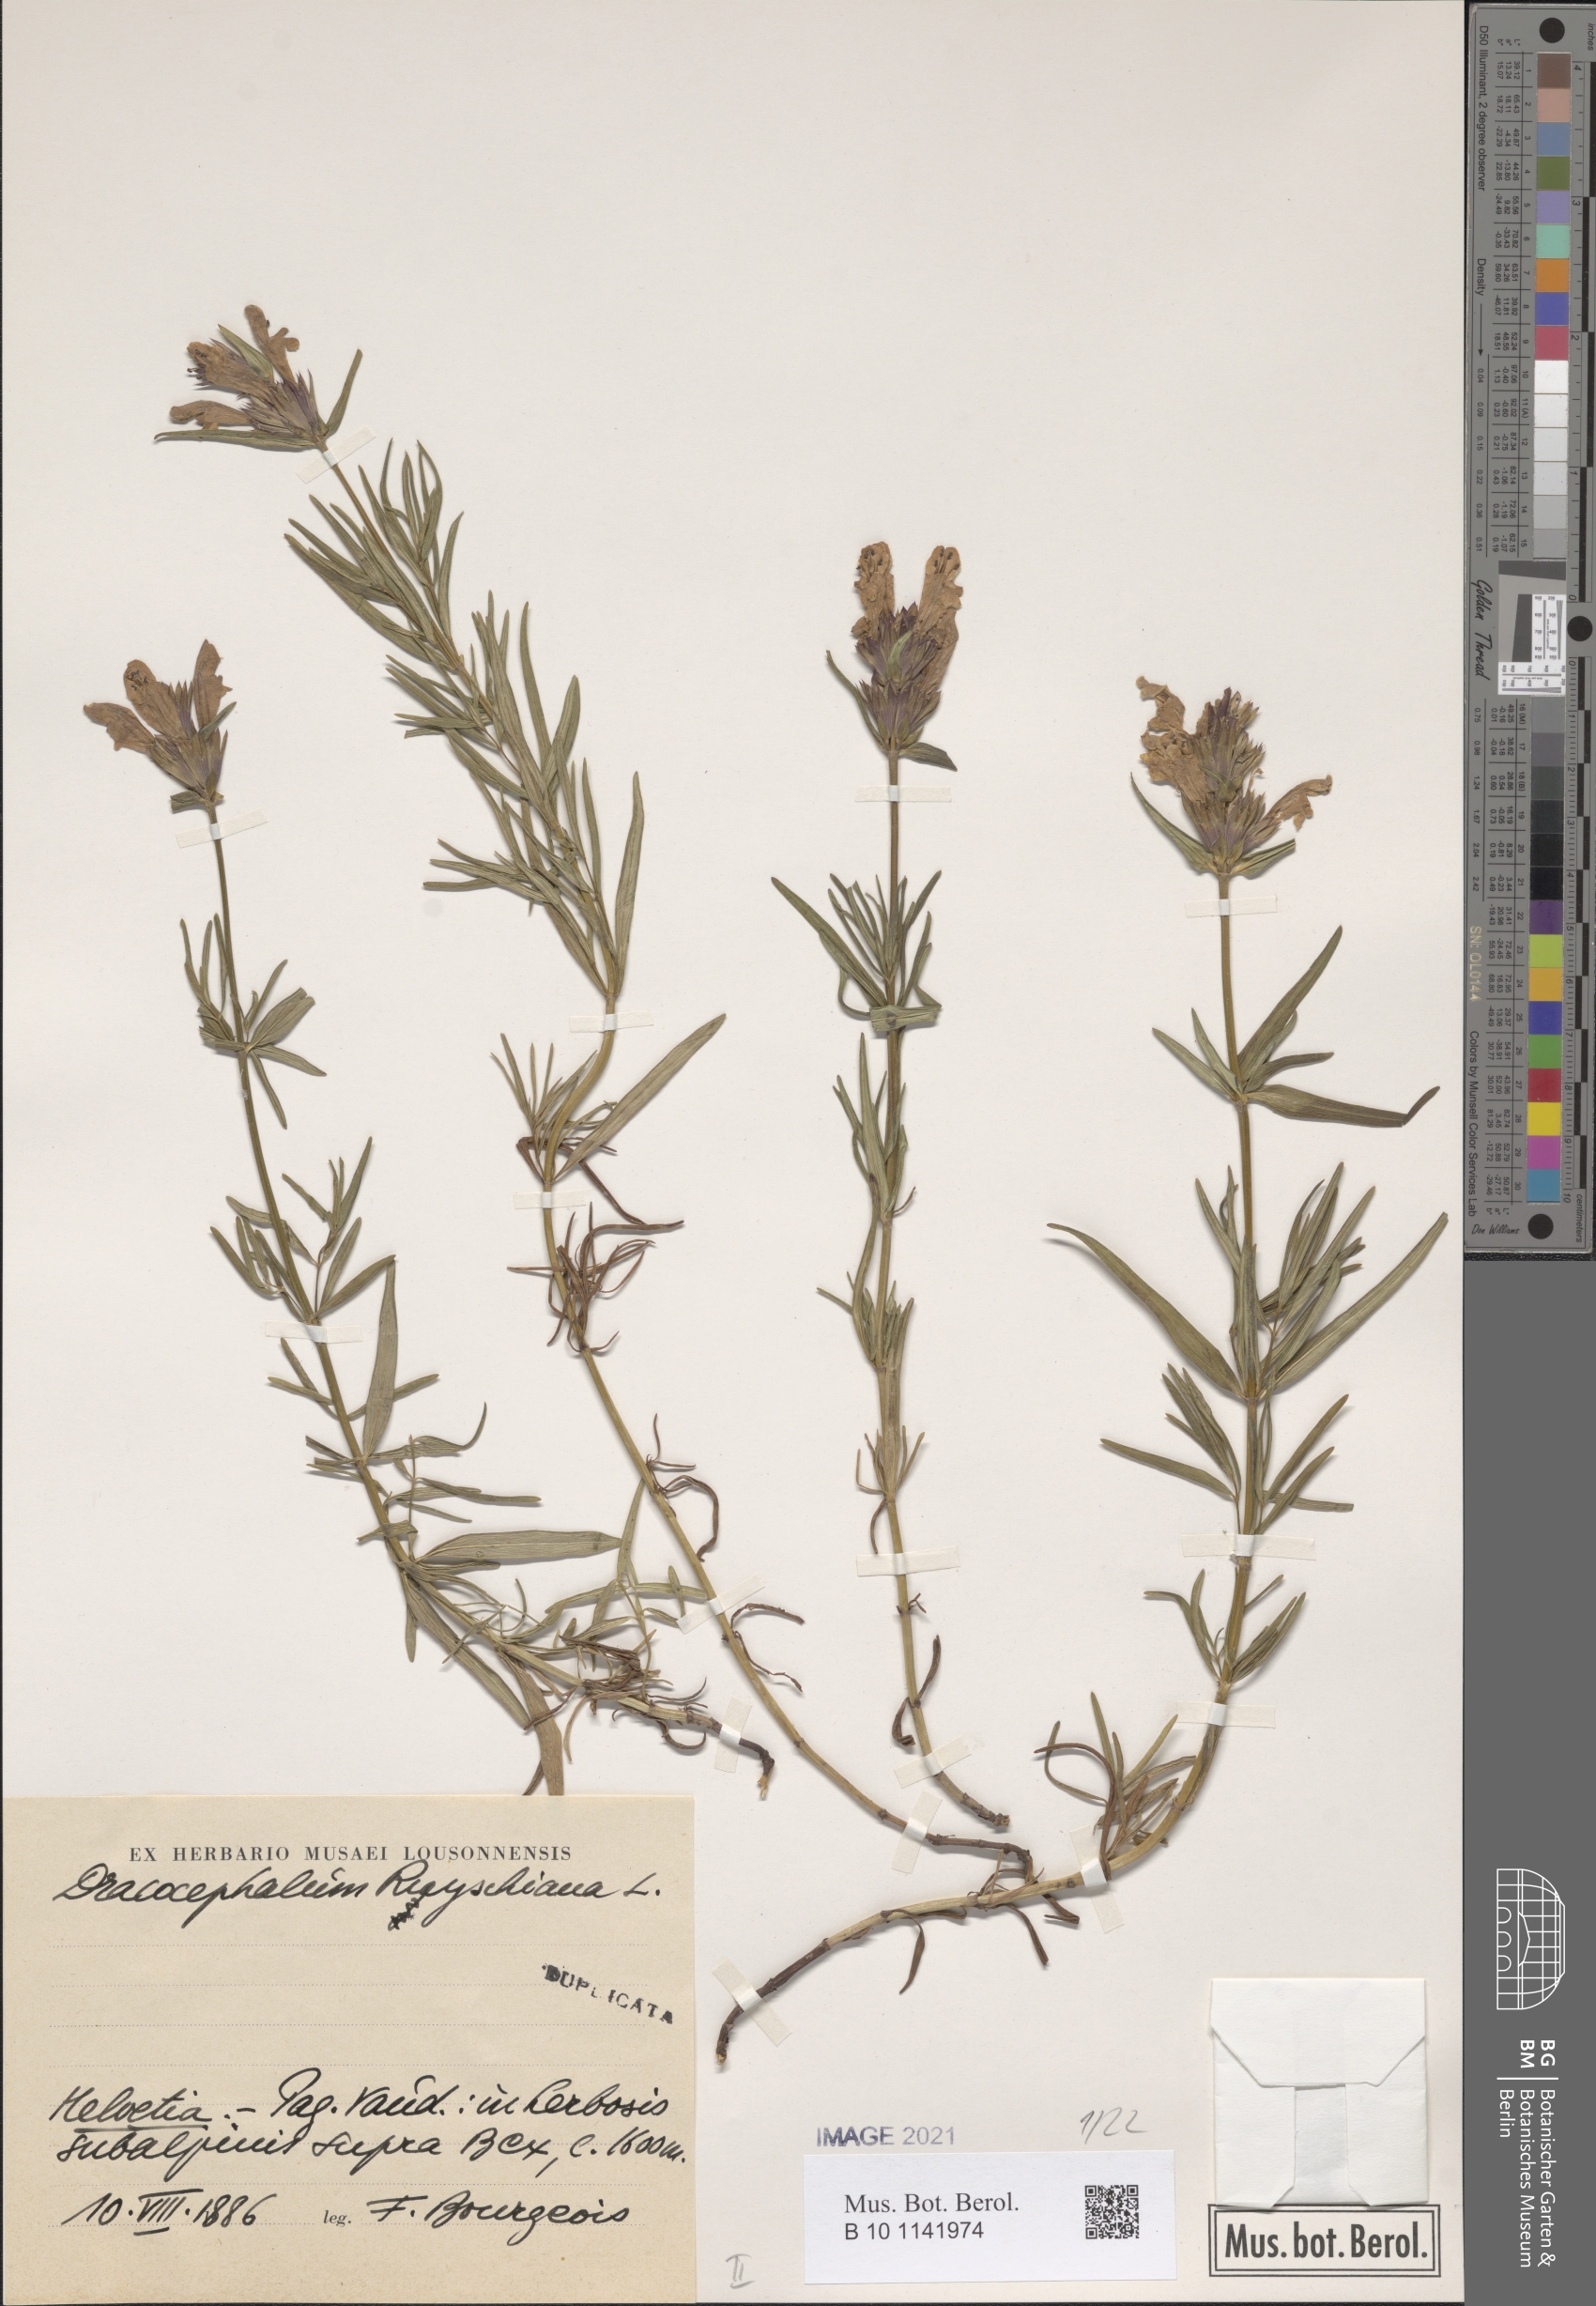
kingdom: Plantae
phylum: Tracheophyta
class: Magnoliopsida
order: Lamiales
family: Lamiaceae
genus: Dracocephalum
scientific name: Dracocephalum ruyschiana
